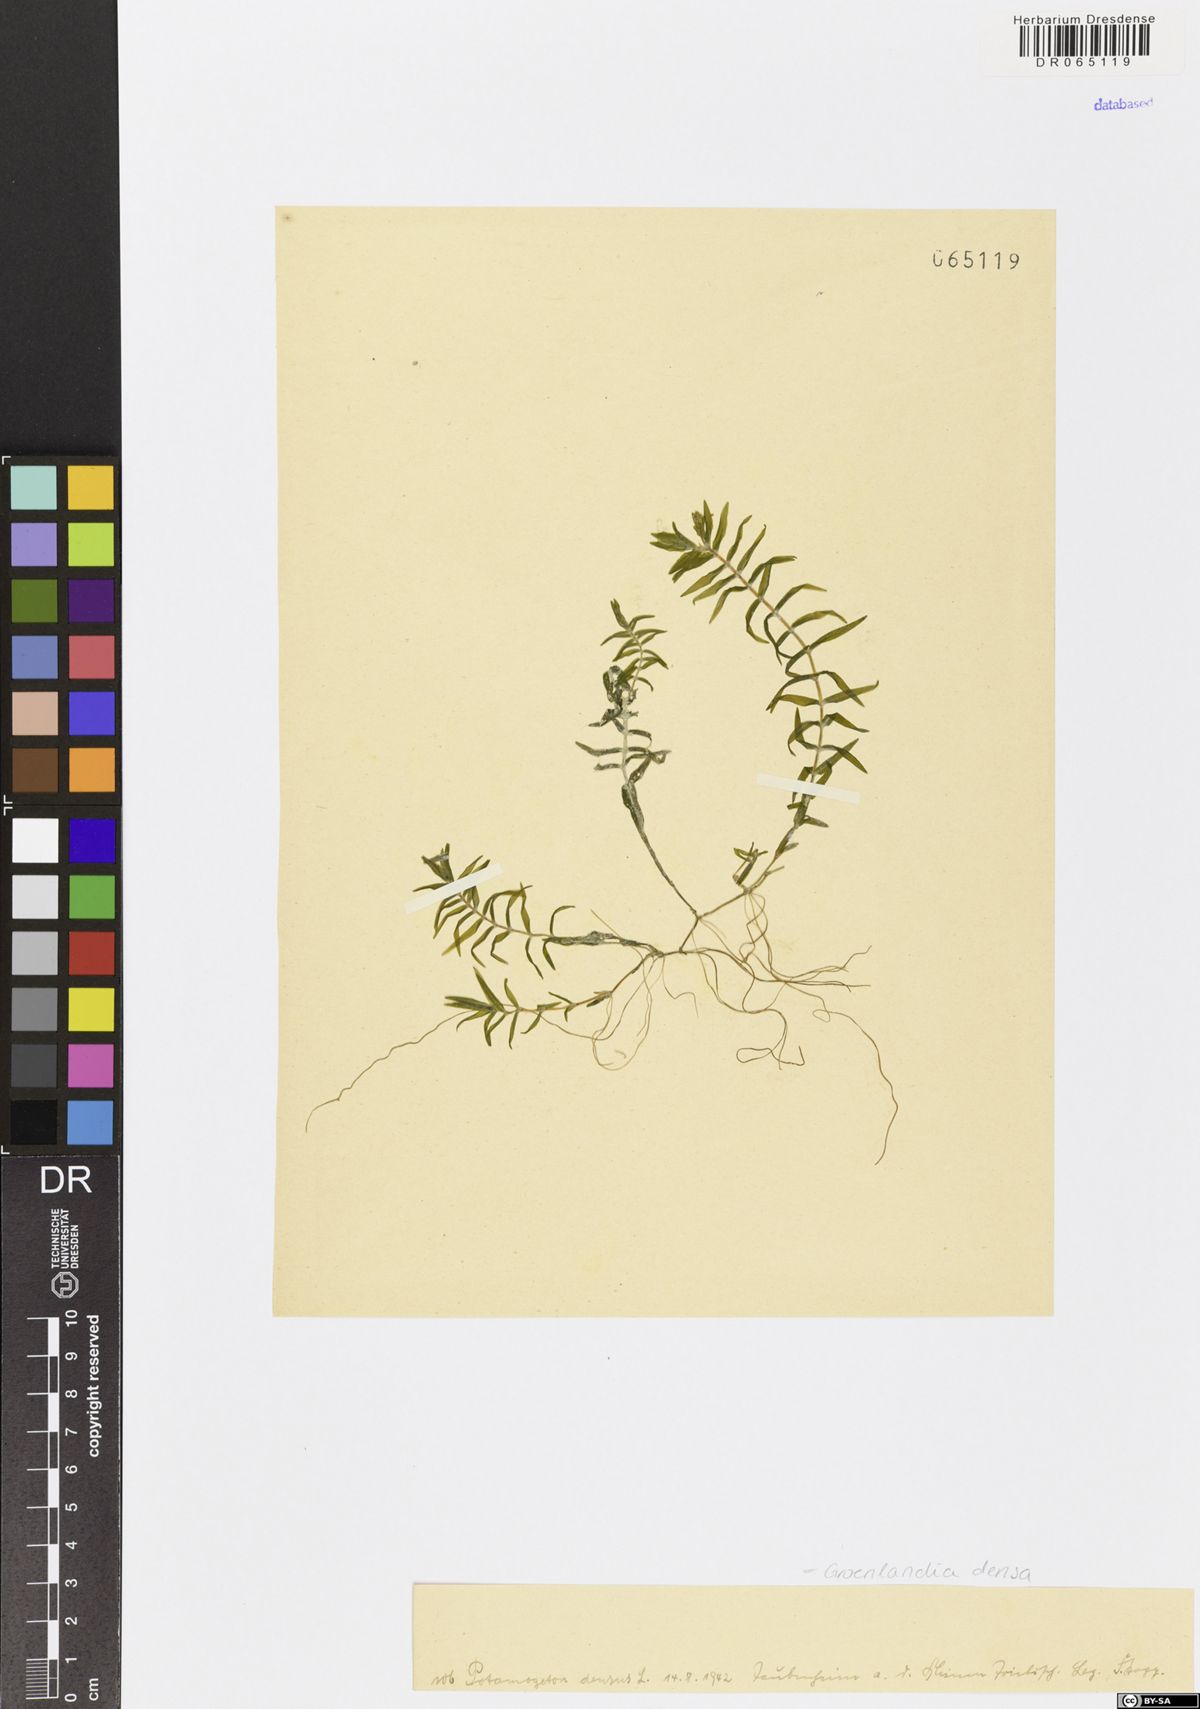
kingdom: Plantae
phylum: Tracheophyta
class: Liliopsida
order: Alismatales
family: Potamogetonaceae
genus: Groenlandia
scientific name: Groenlandia densa
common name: Opposite-leaved pondweed
